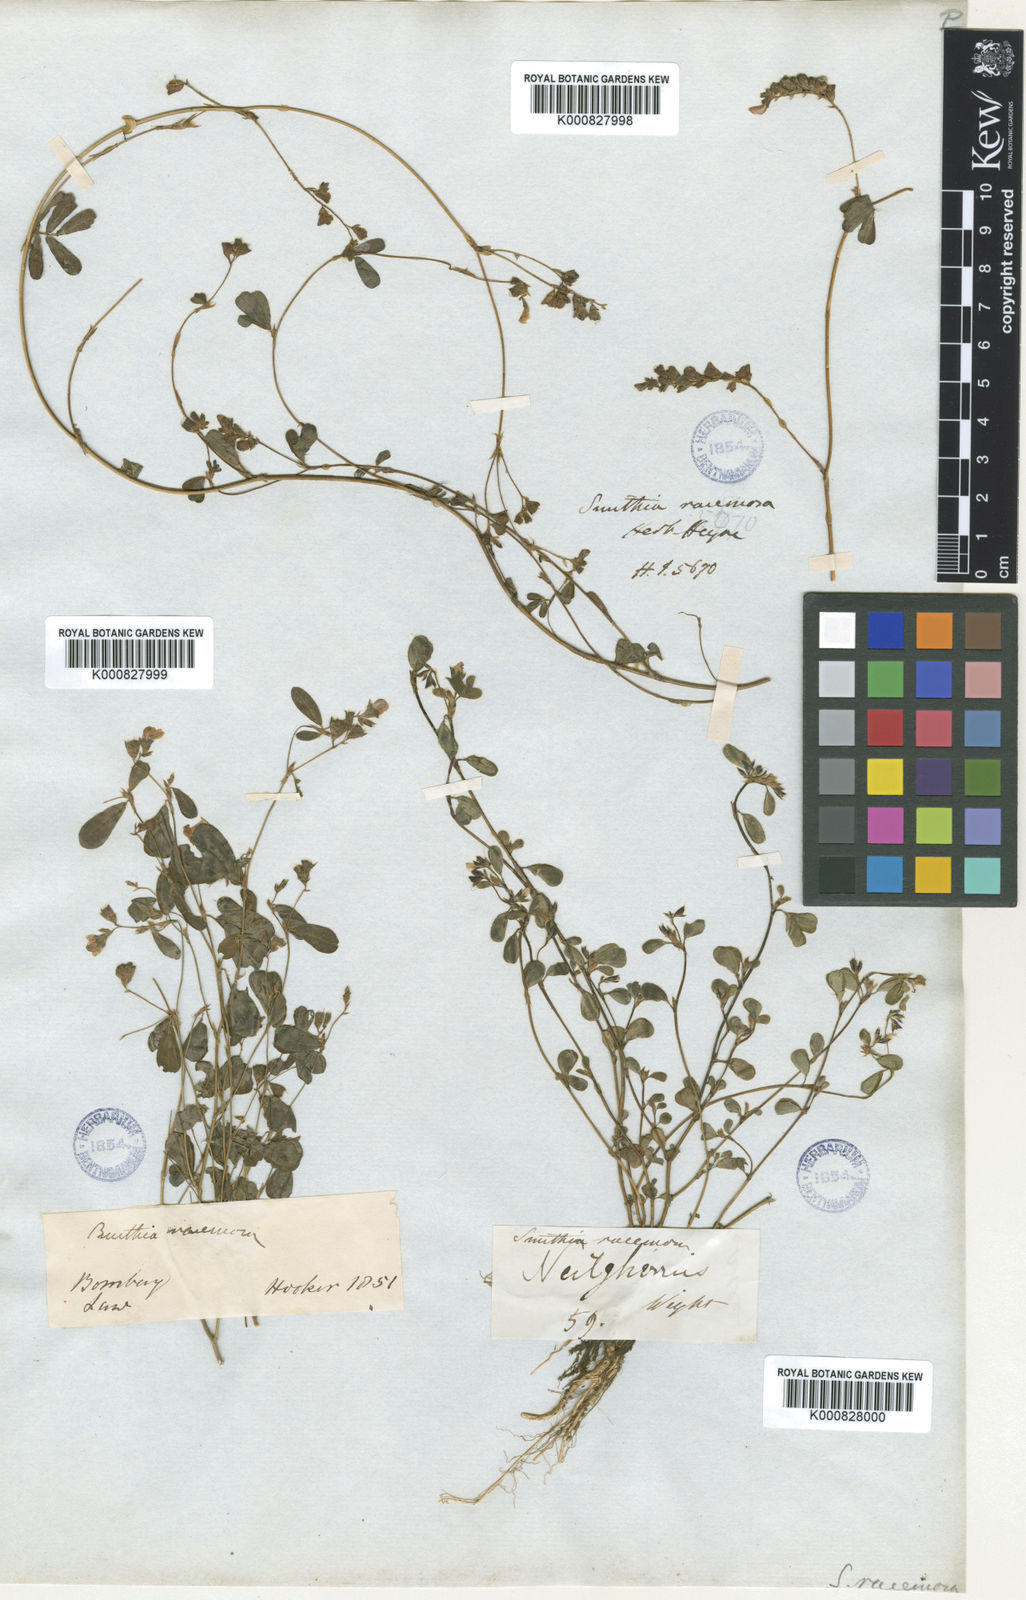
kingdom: Plantae
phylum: Tracheophyta
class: Magnoliopsida
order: Fabales
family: Fabaceae
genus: Smithia
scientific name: Smithia
